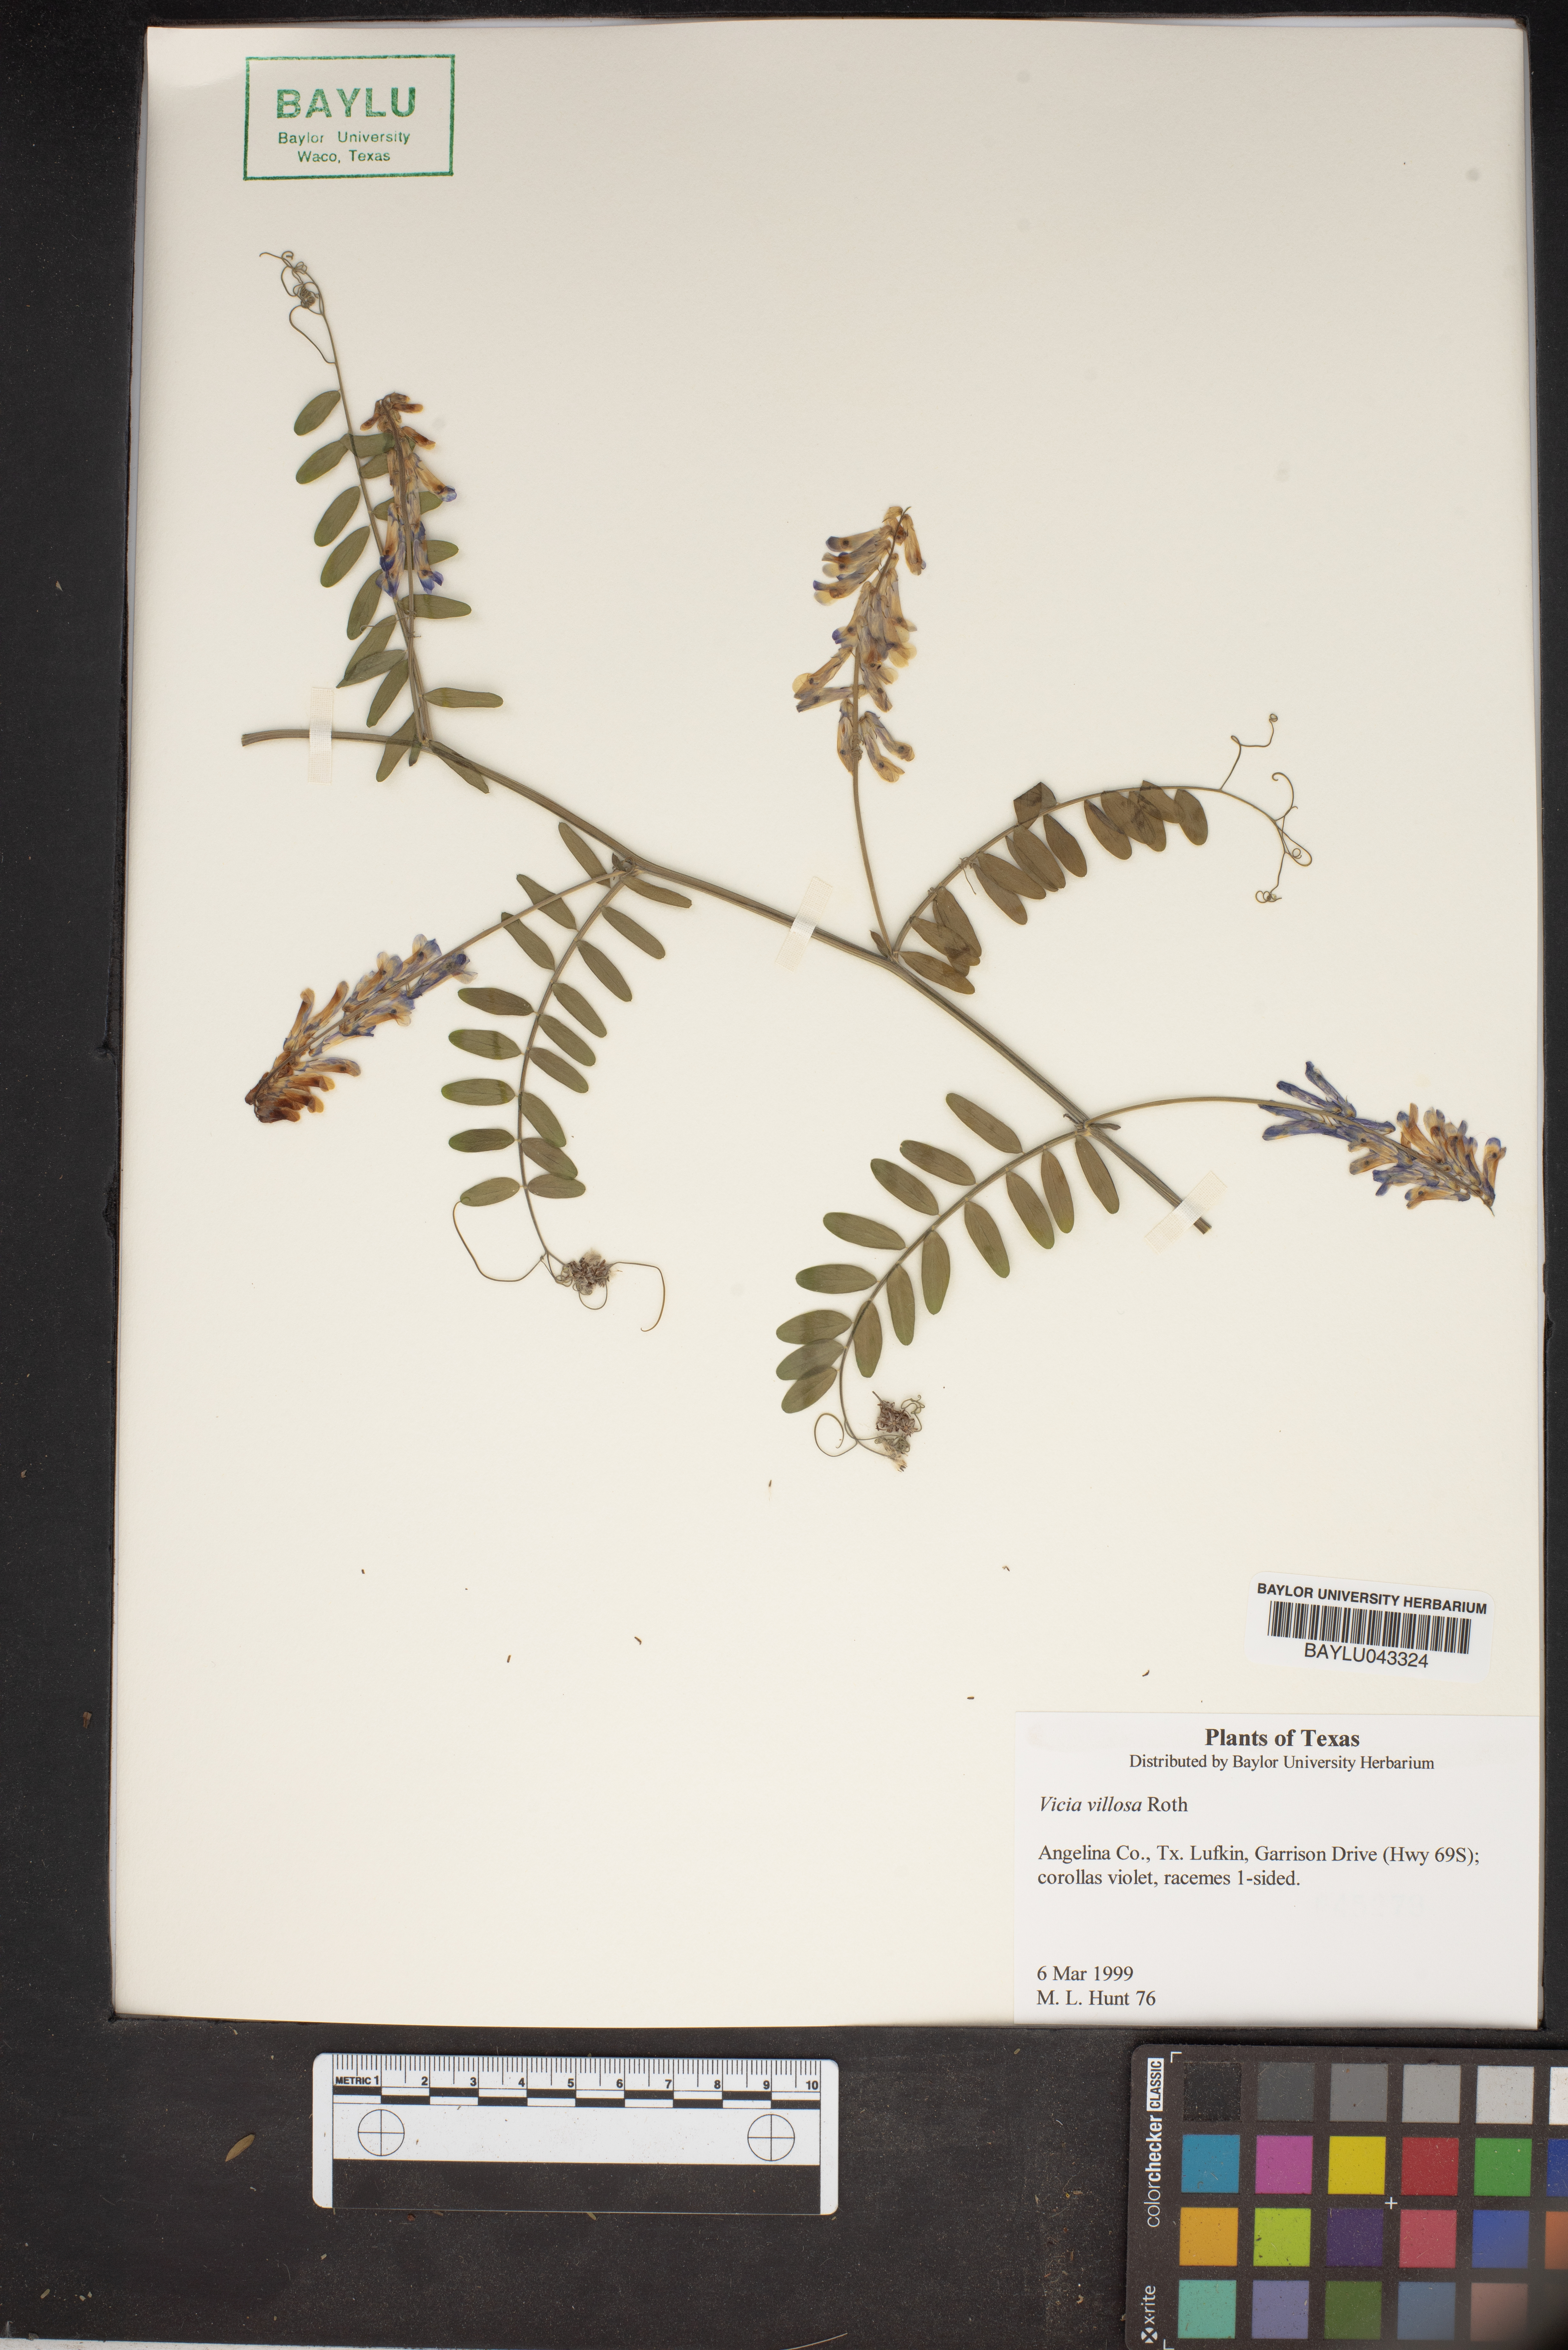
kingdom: Plantae
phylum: Tracheophyta
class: Magnoliopsida
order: Fabales
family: Fabaceae
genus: Vicia
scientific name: Vicia villosa
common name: Fodder vetch
